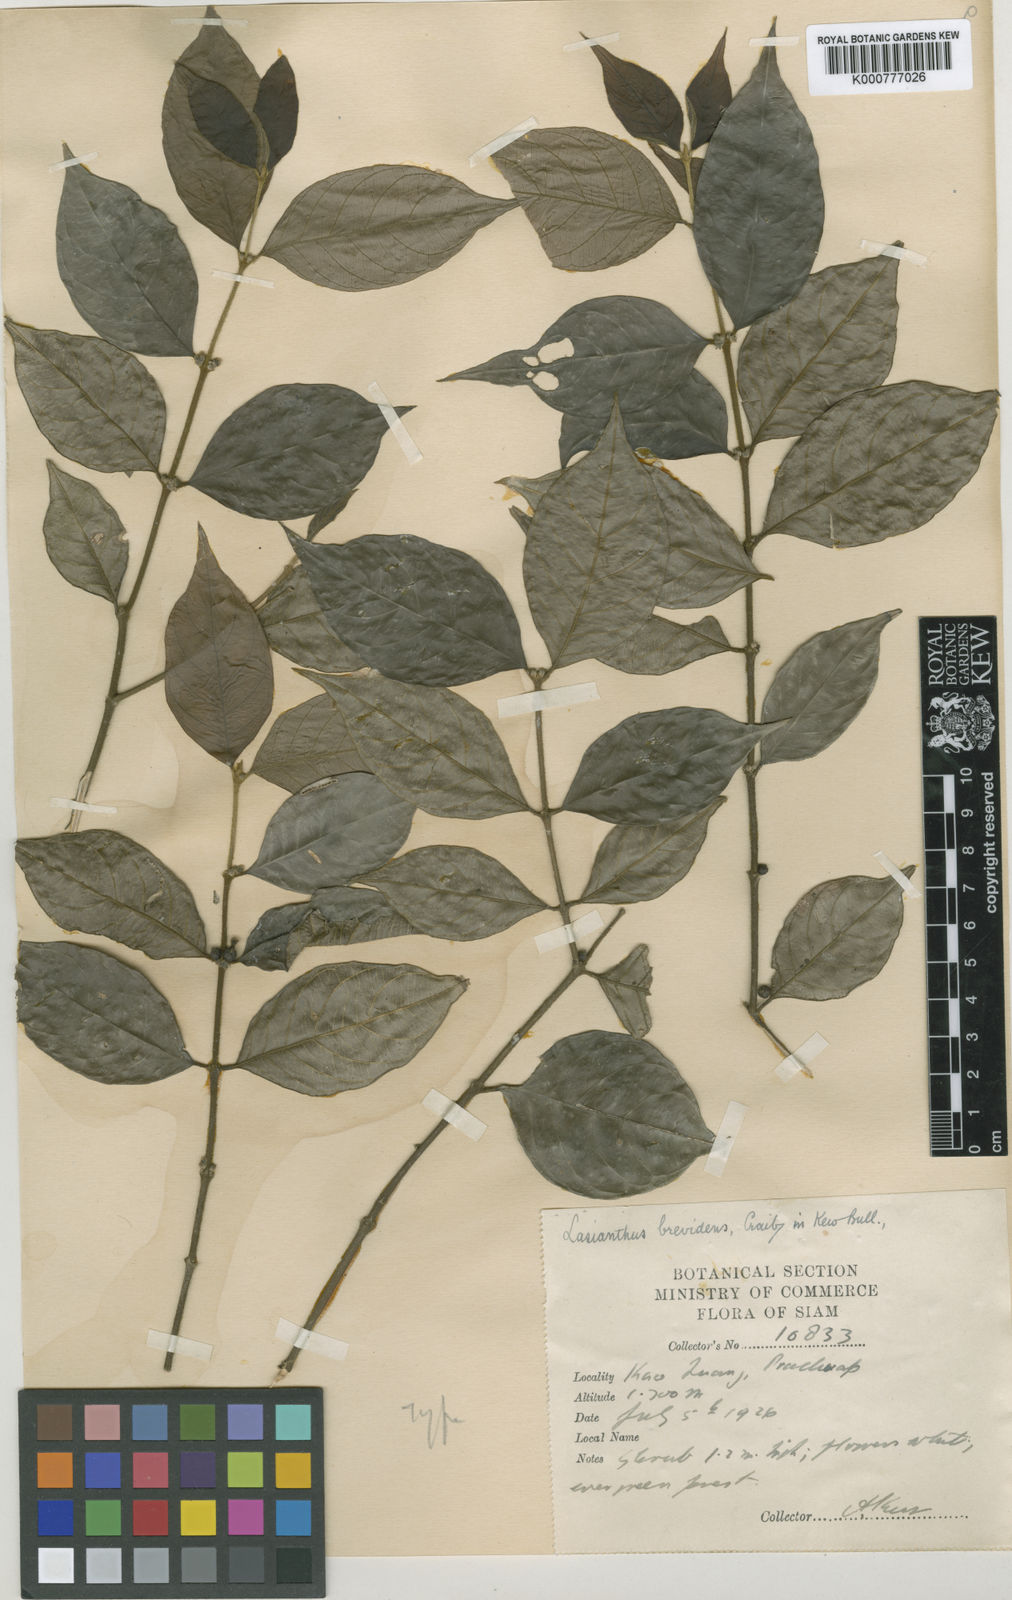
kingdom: Plantae
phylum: Tracheophyta
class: Magnoliopsida
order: Gentianales
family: Rubiaceae
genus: Lasianthus
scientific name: Lasianthus hispidulus
